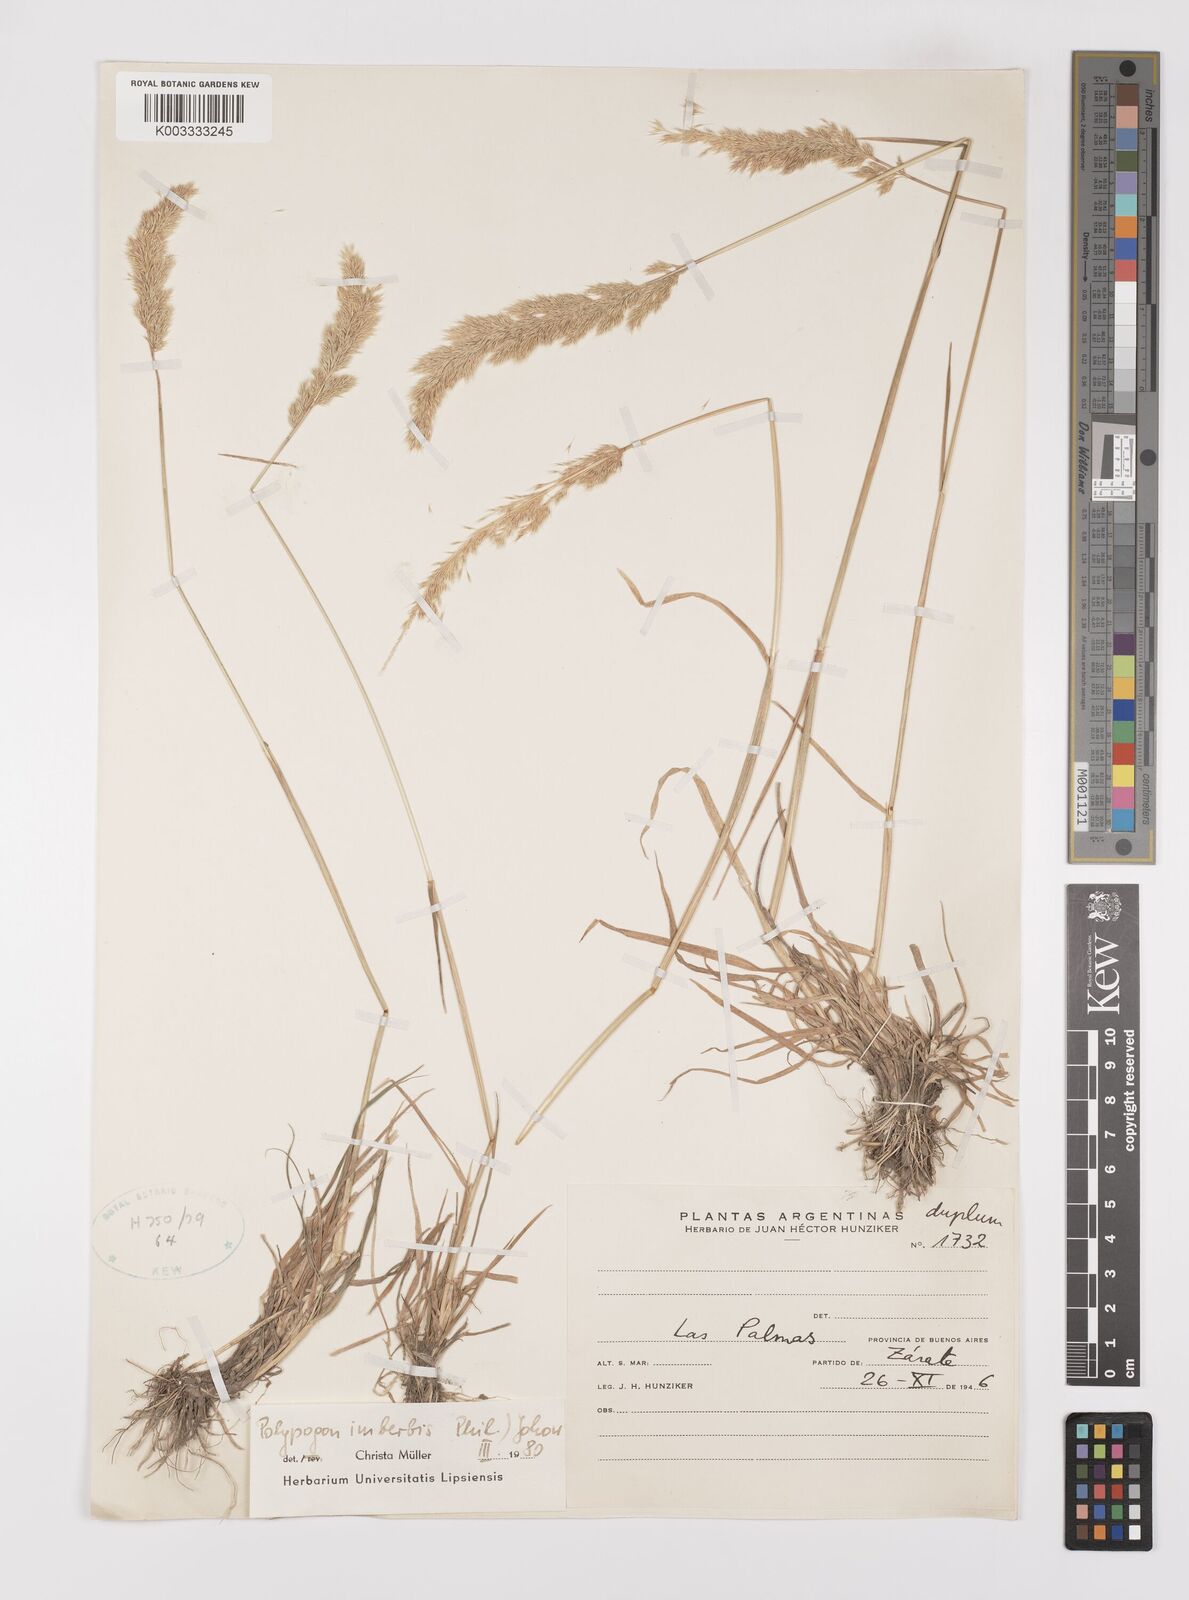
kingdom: Plantae
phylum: Tracheophyta
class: Liliopsida
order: Poales
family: Poaceae
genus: Polypogon
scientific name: Polypogon imberbis
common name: Beardless rabbitsfoot grass
